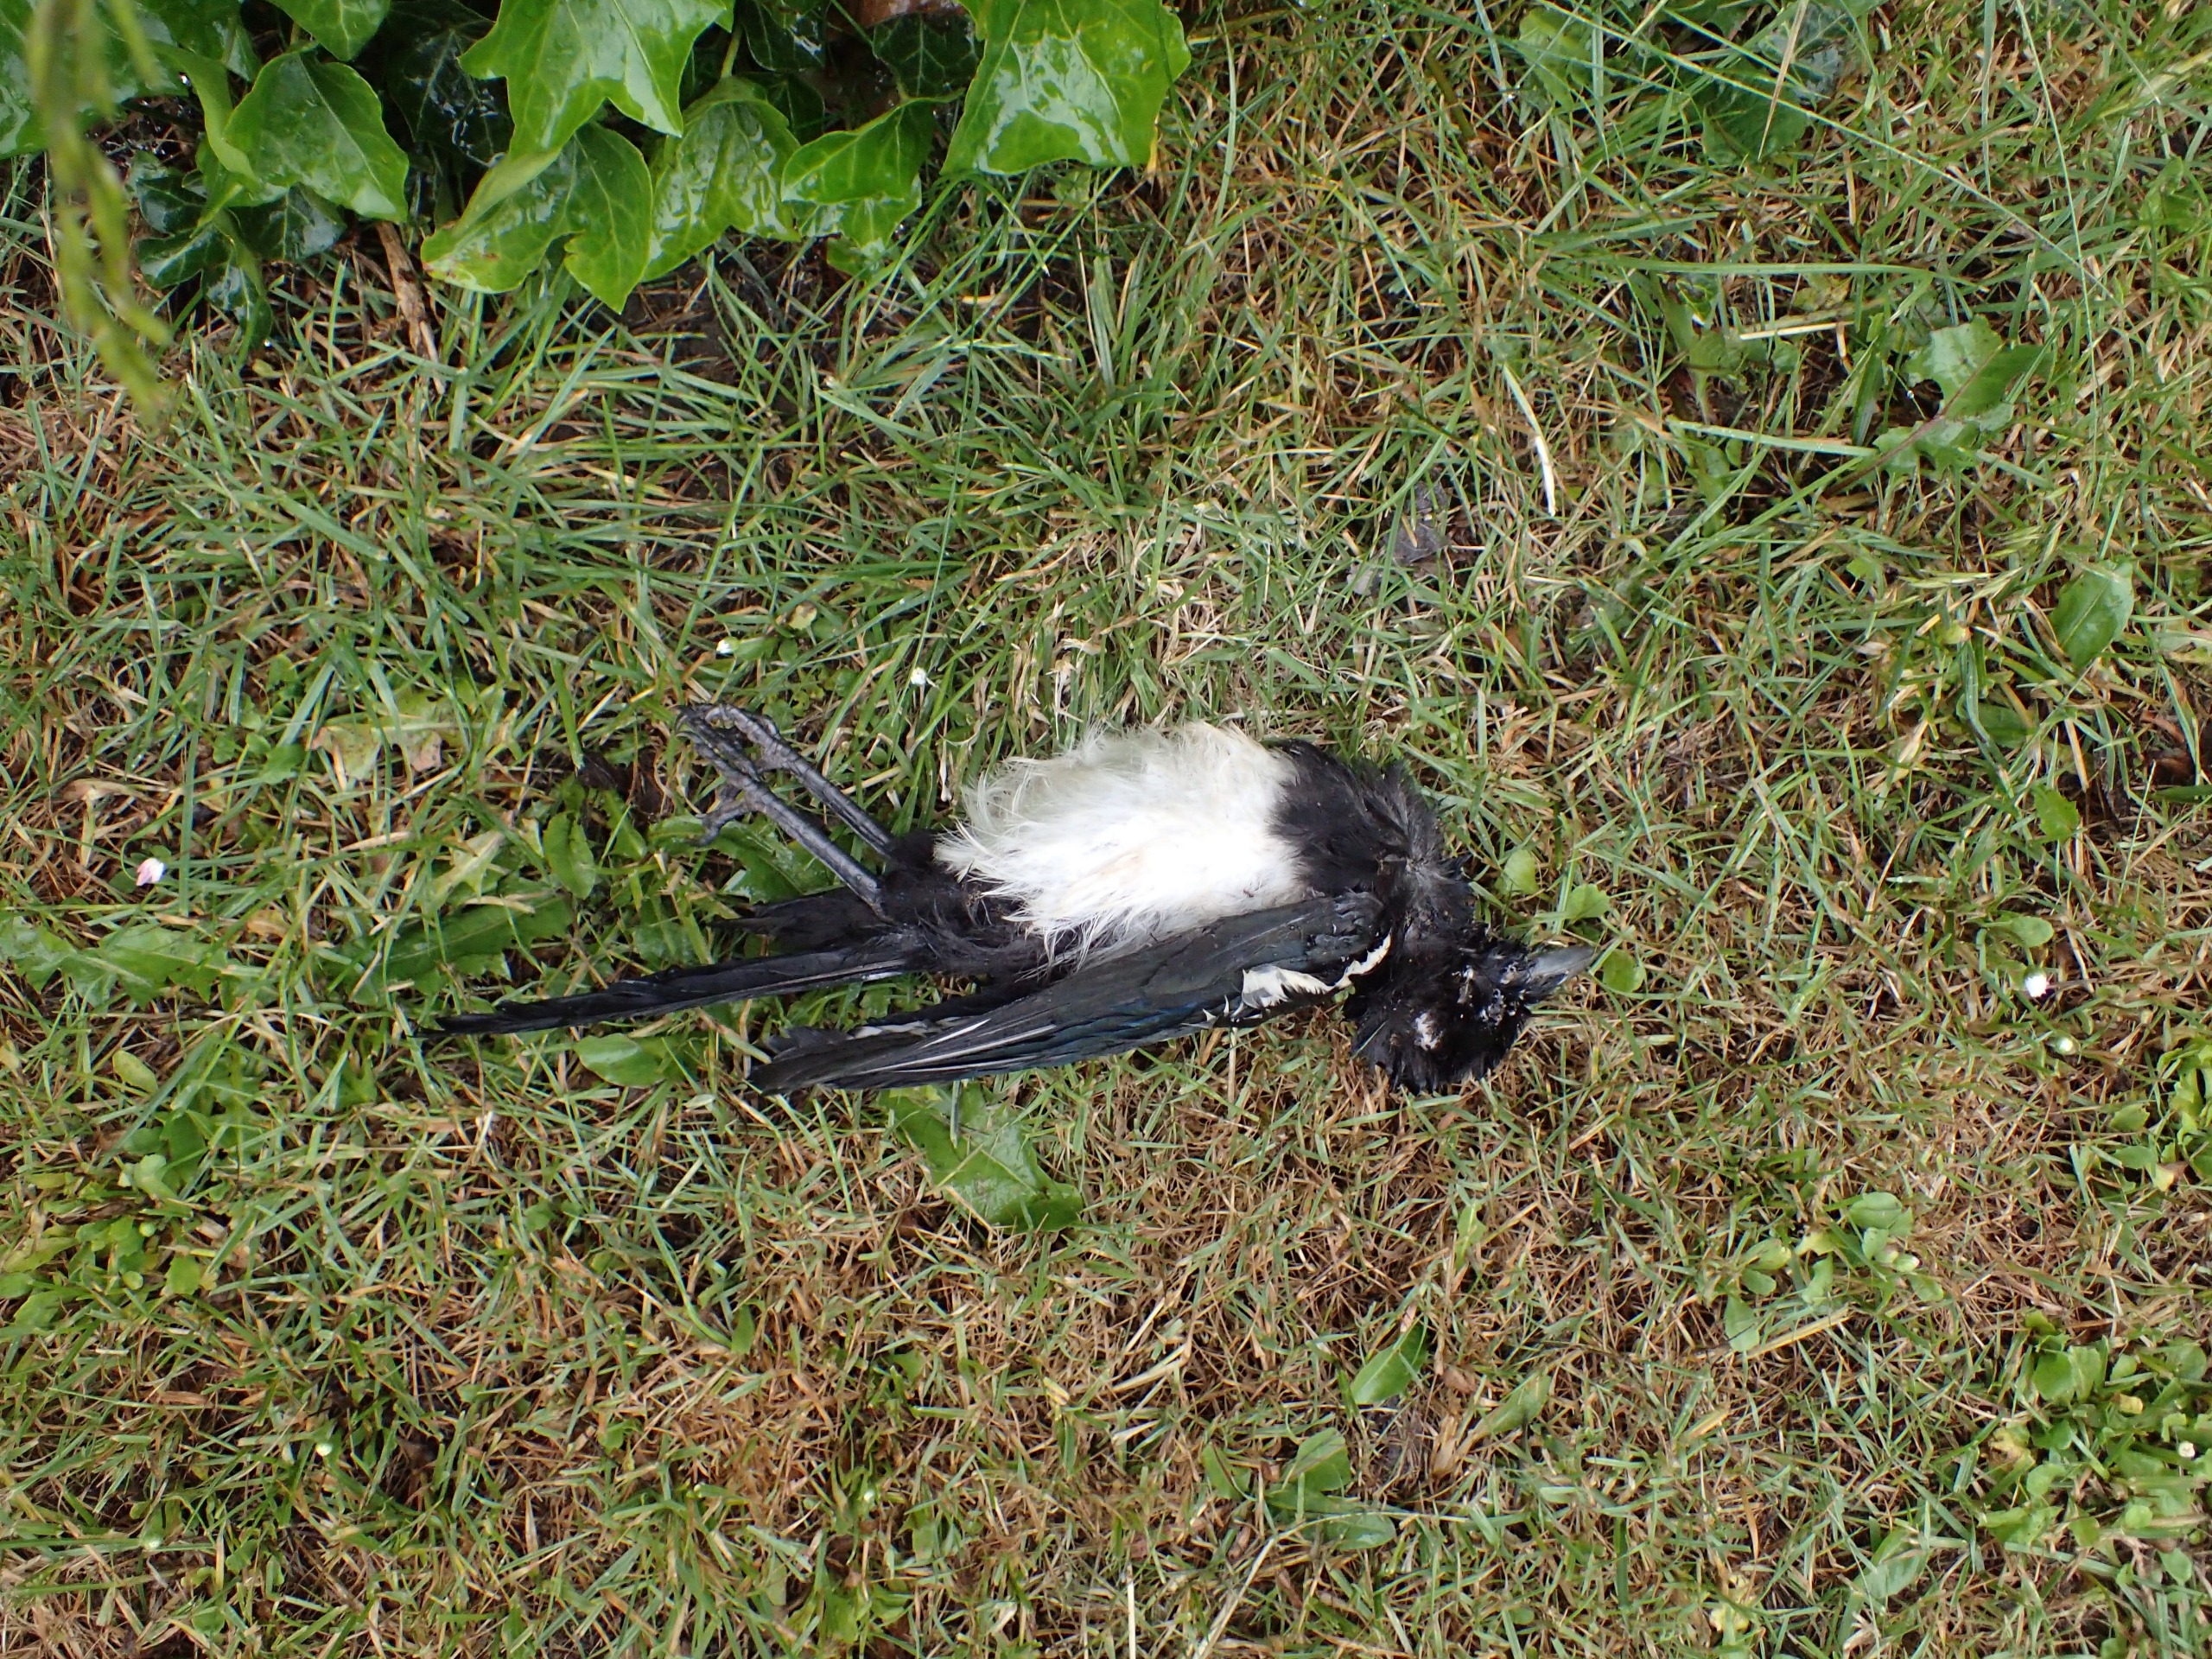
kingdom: Animalia
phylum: Chordata
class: Aves
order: Passeriformes
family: Corvidae
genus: Pica
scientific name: Pica pica
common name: Husskade
